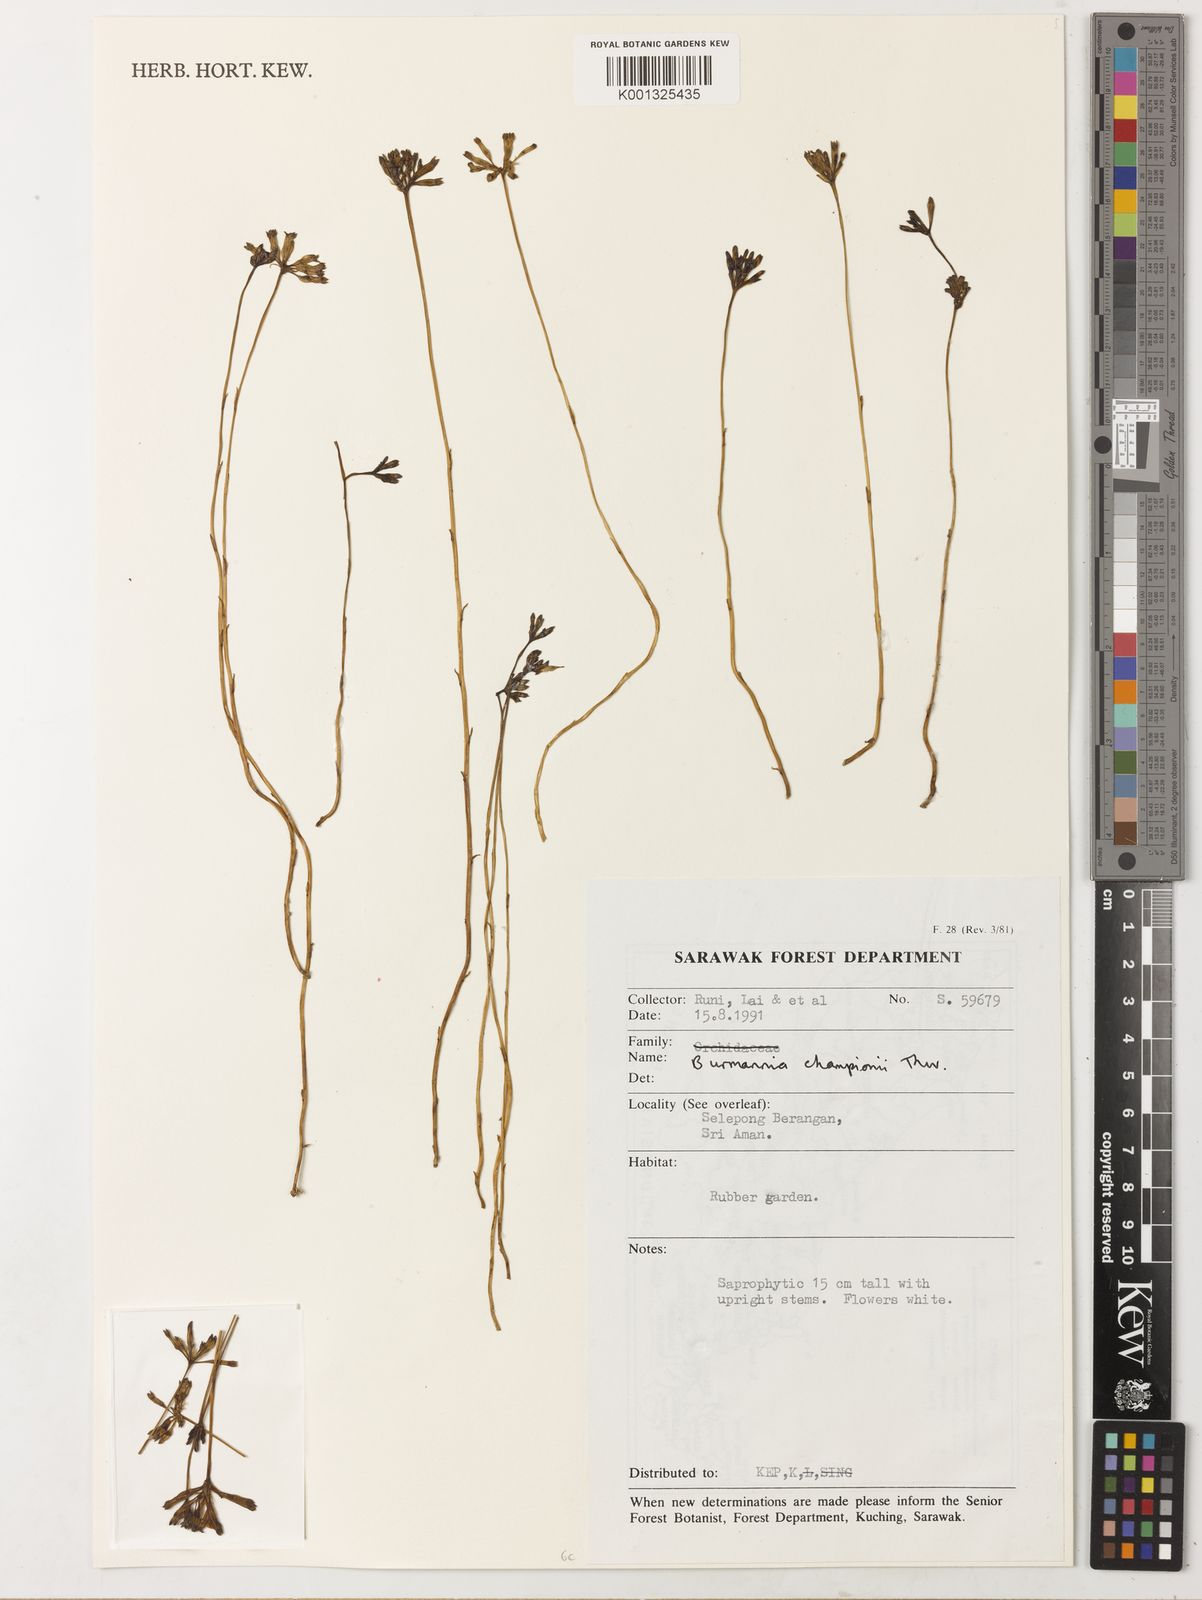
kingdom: Plantae
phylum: Tracheophyta
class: Liliopsida
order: Dioscoreales
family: Burmanniaceae
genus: Burmannia
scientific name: Burmannia championii
